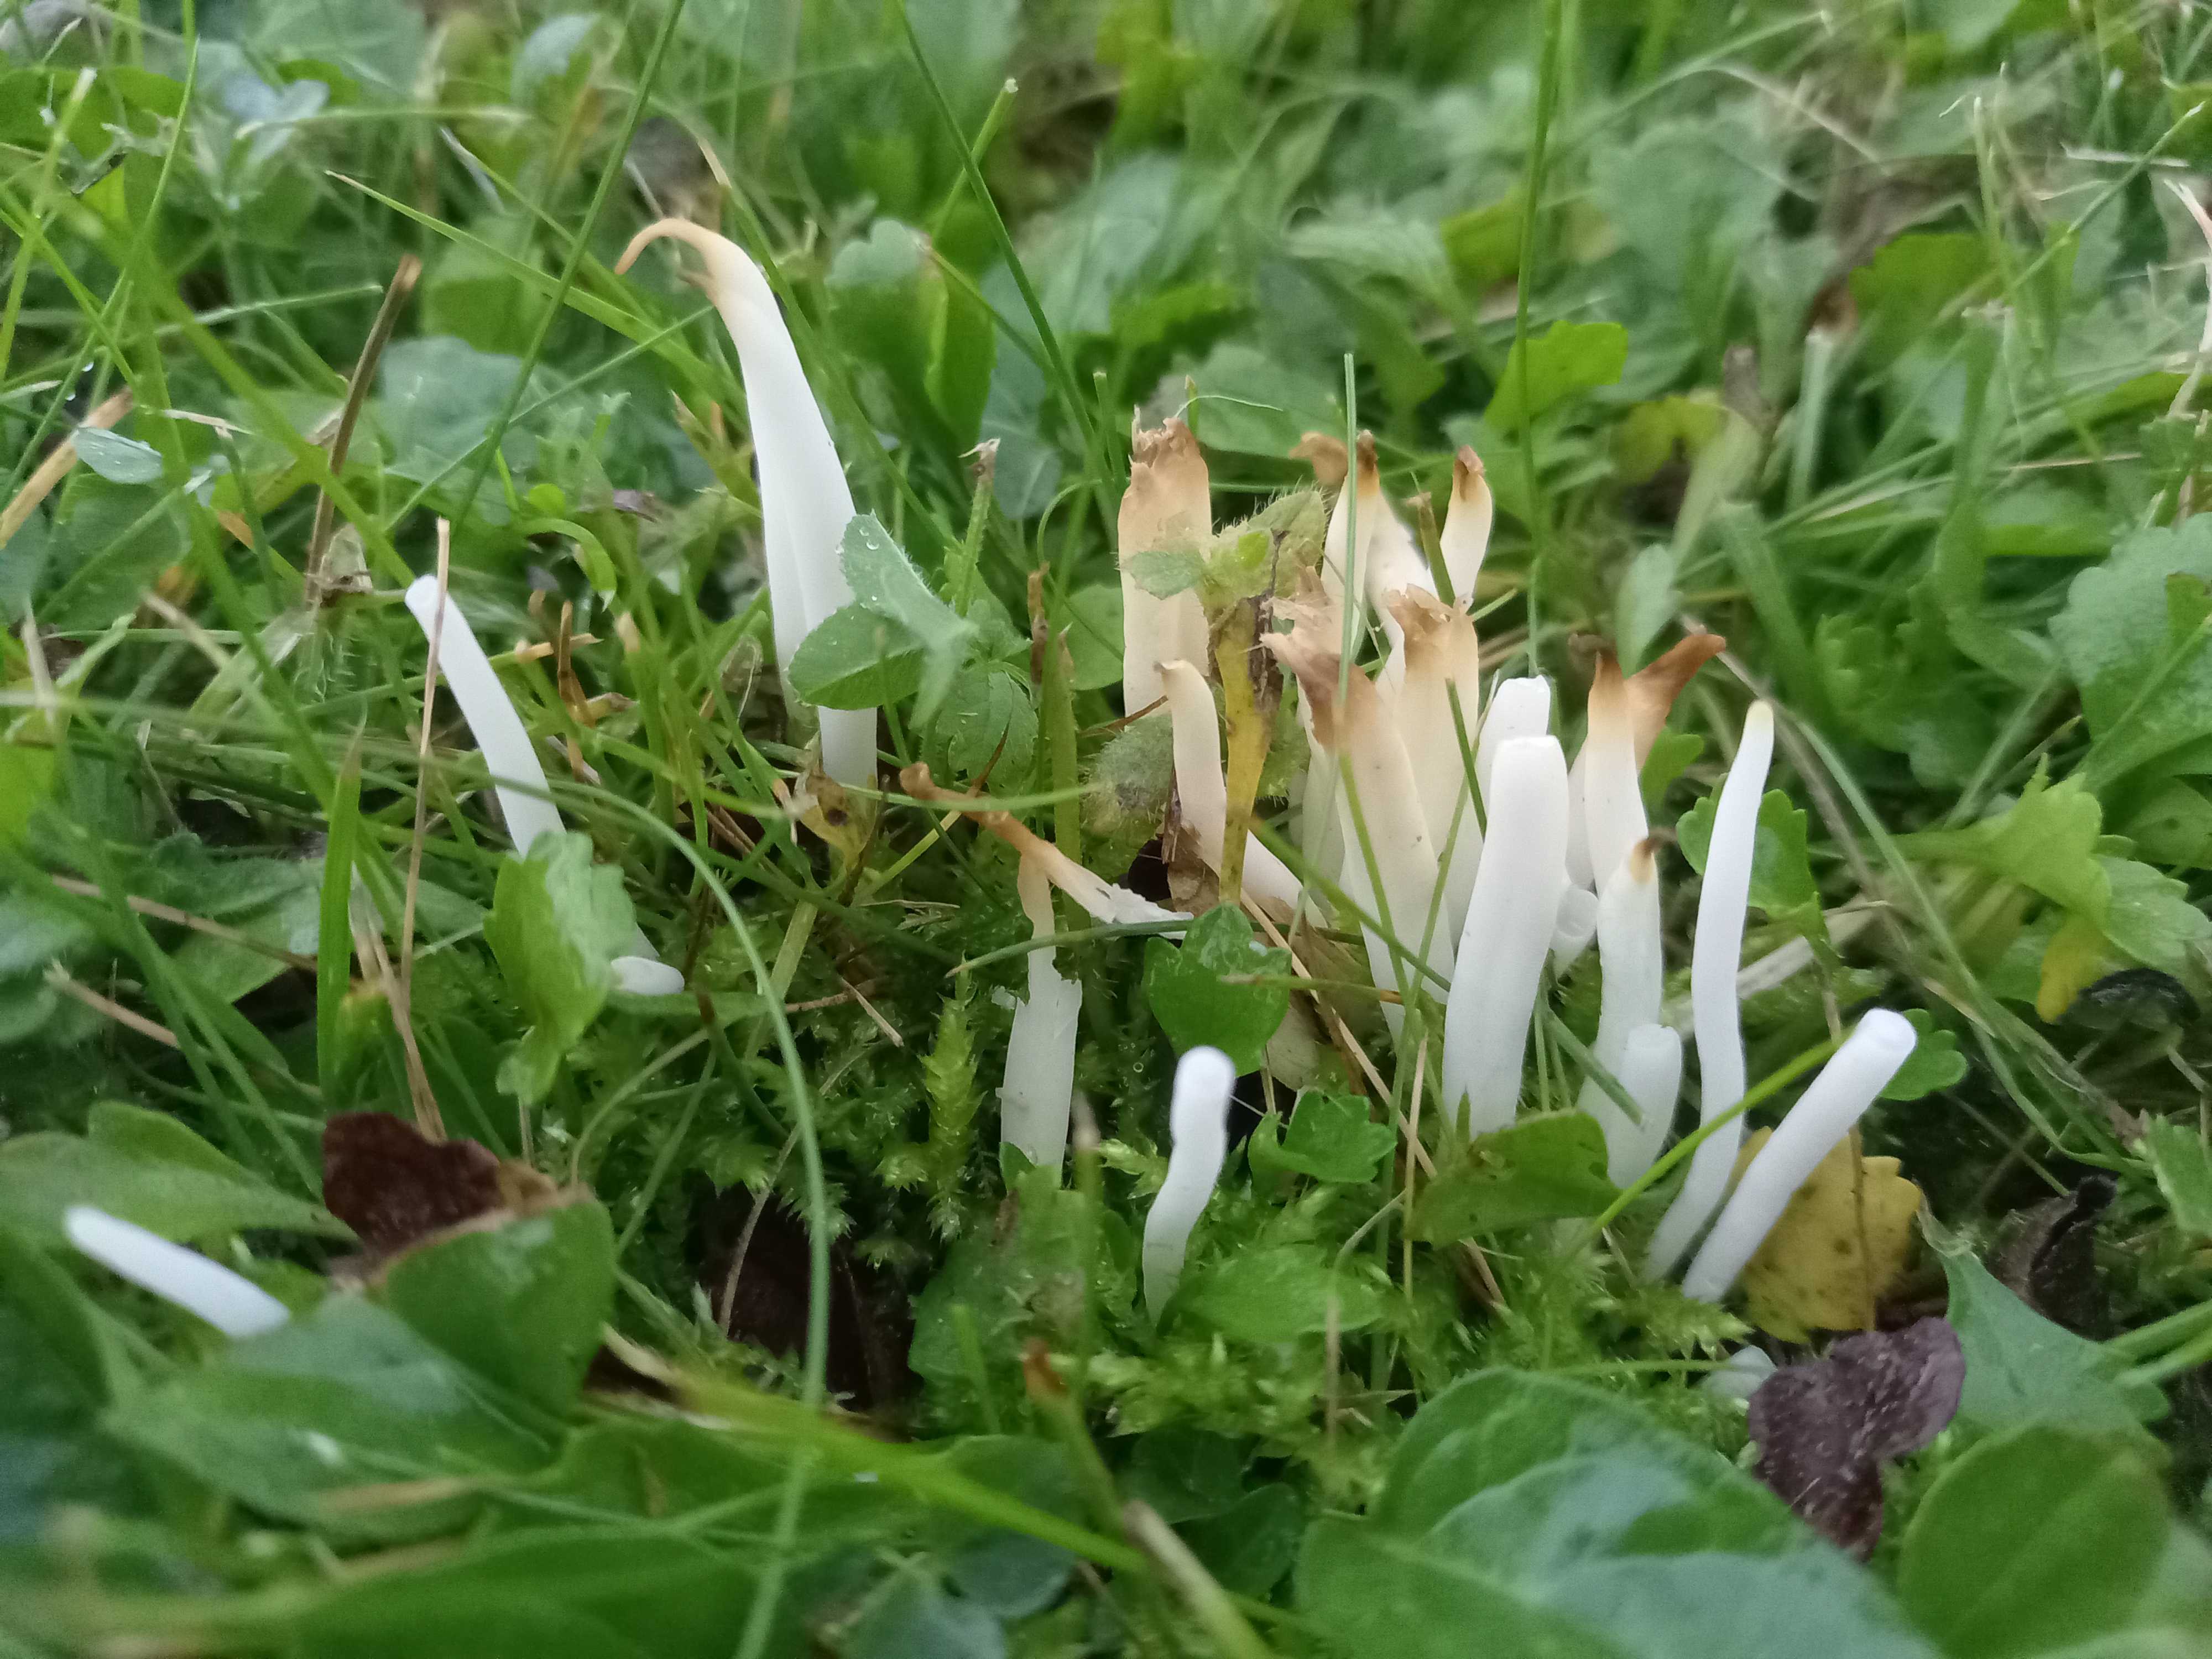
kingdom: Fungi
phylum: Basidiomycota
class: Agaricomycetes
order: Agaricales
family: Clavariaceae
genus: Clavaria
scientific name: Clavaria fragilis
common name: bugtet køllesvamp
